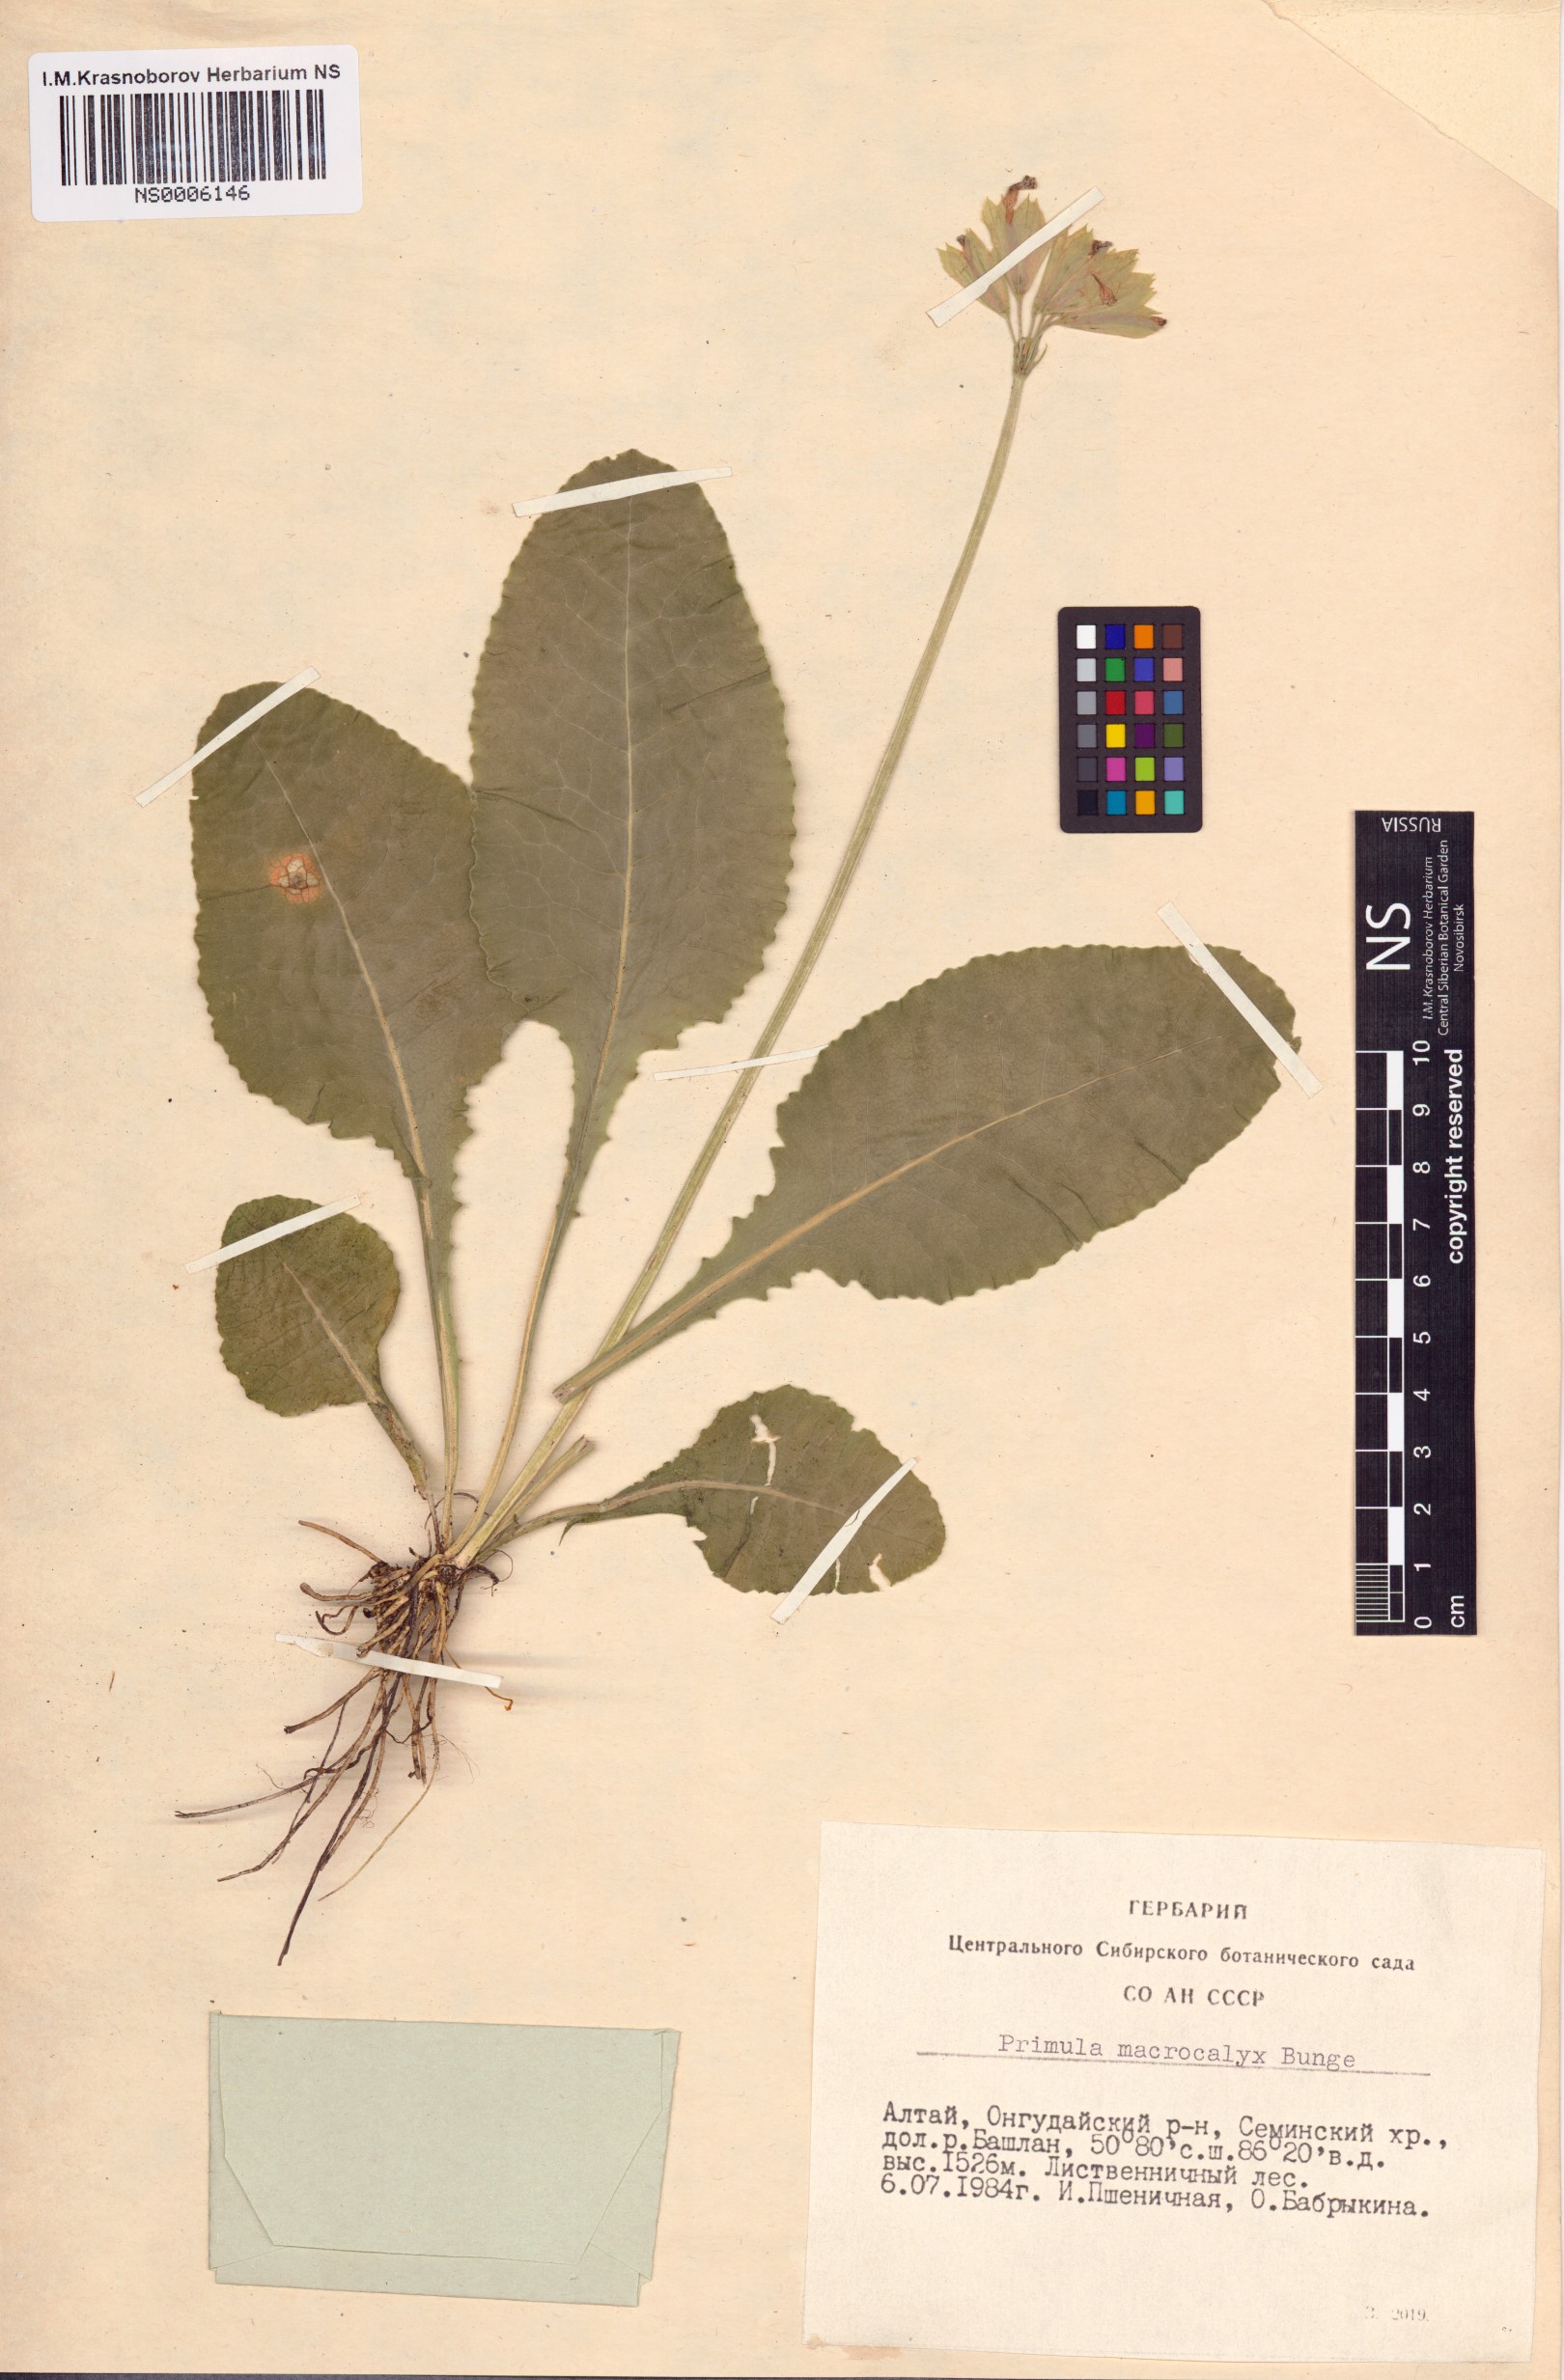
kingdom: Plantae
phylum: Tracheophyta
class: Magnoliopsida
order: Ericales
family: Primulaceae
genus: Primula
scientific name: Primula veris
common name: Cowslip
